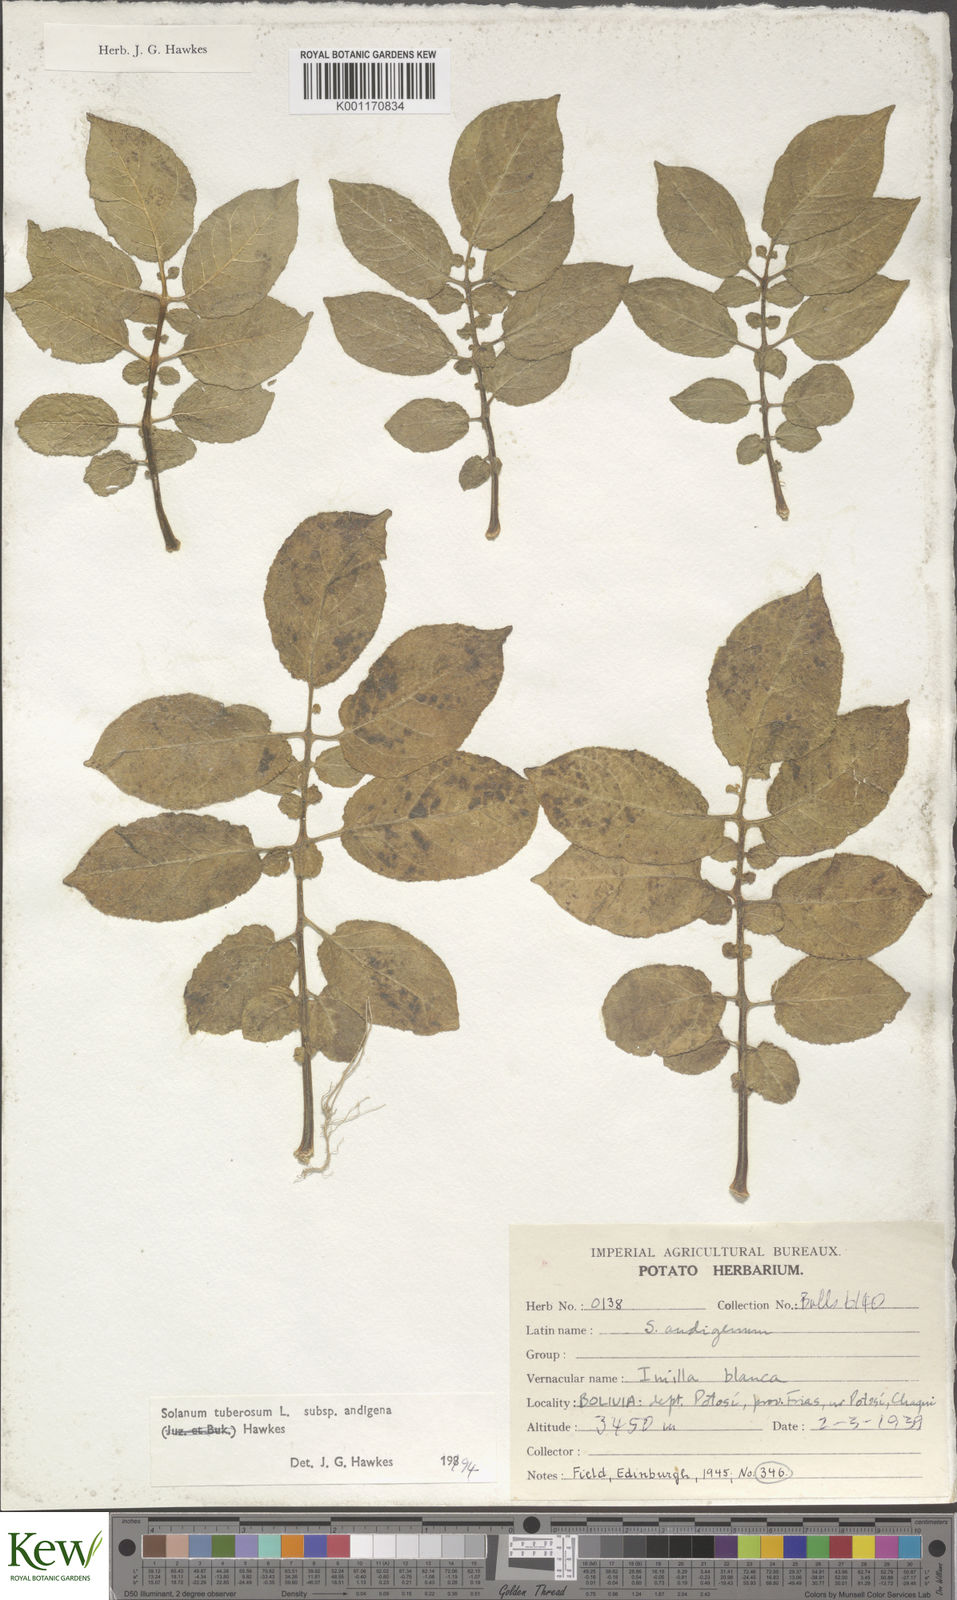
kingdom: Plantae
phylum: Tracheophyta
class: Magnoliopsida
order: Solanales
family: Solanaceae
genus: Solanum
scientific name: Solanum tuberosum
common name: Potato
